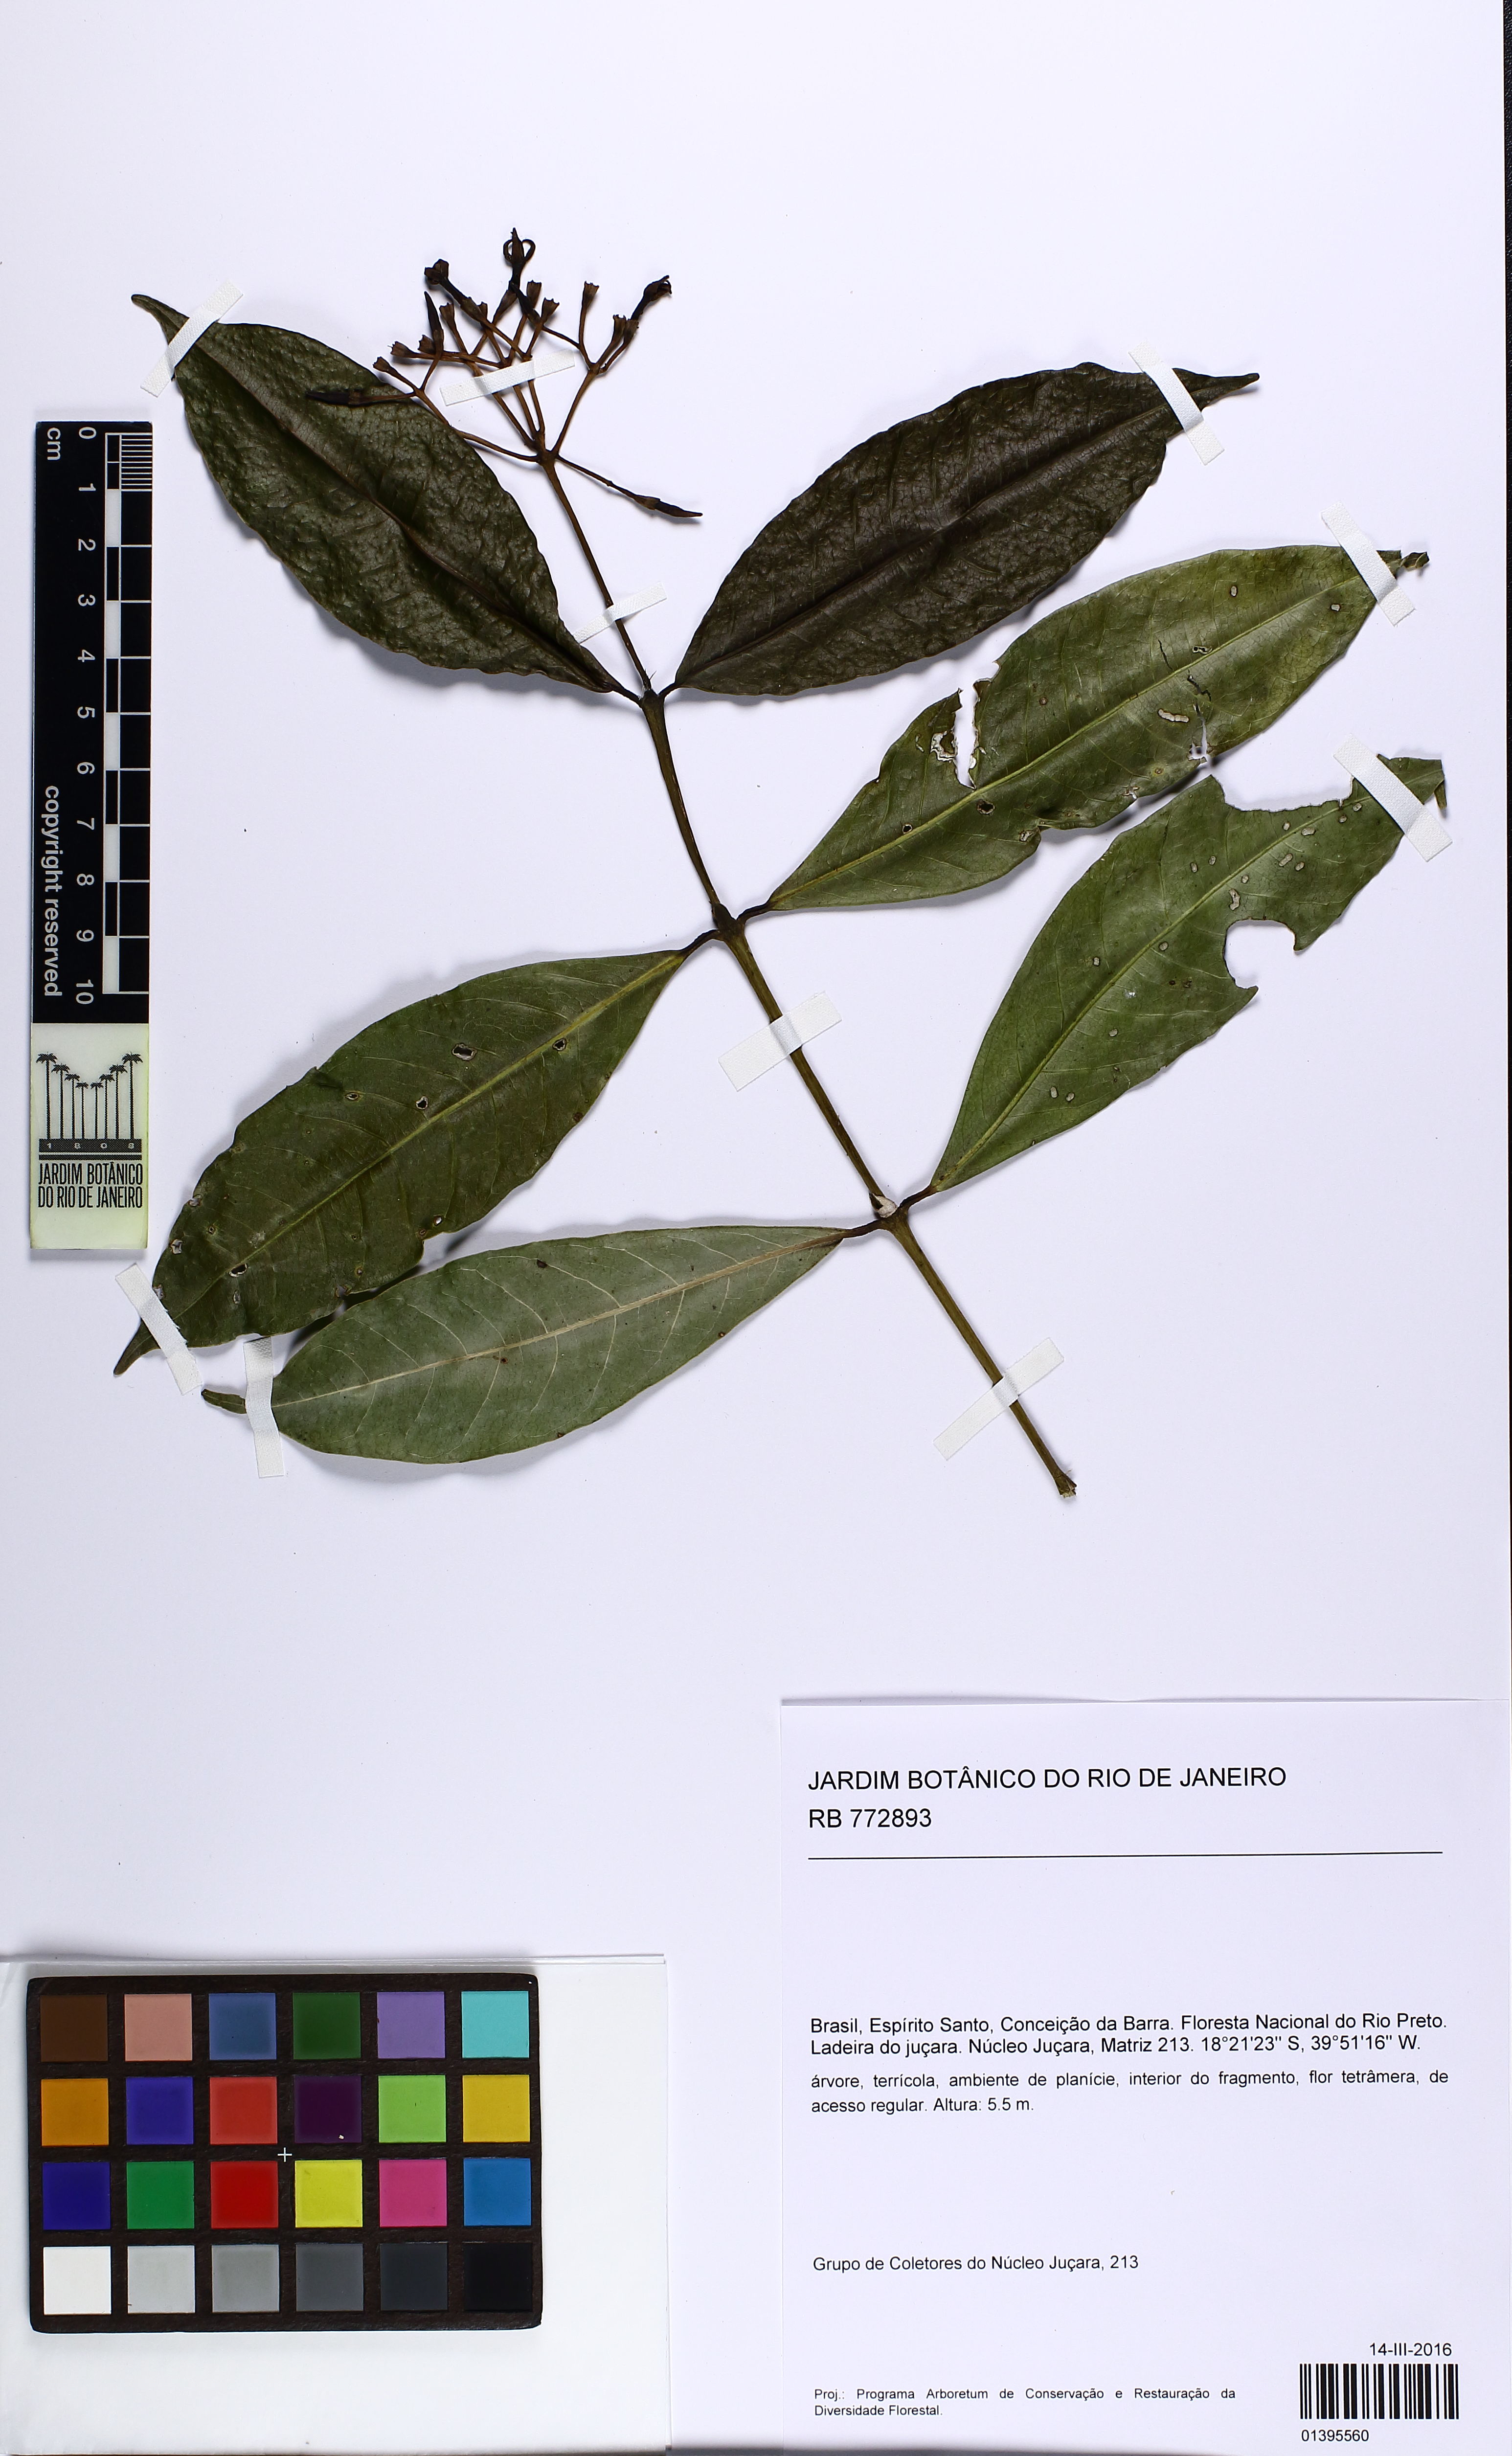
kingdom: Plantae
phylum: Tracheophyta
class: Magnoliopsida
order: Gentianales
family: Rubiaceae
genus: Faramea
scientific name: Faramea
